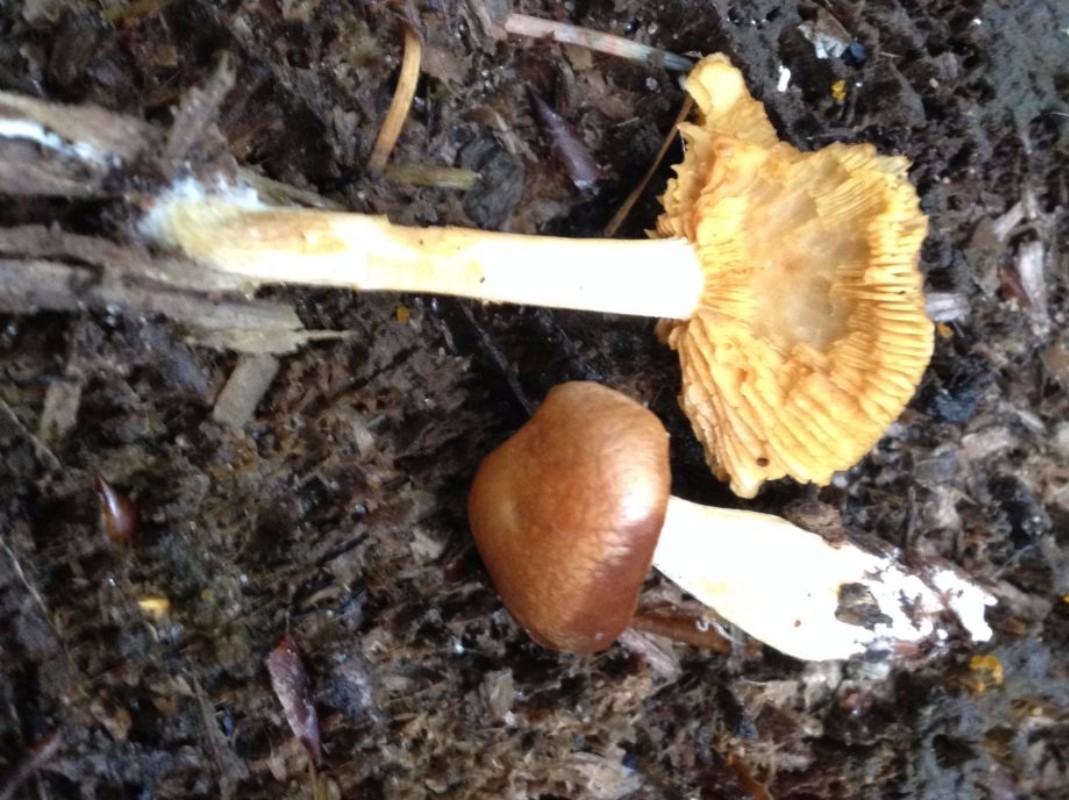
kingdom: Fungi
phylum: Basidiomycota
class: Agaricomycetes
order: Agaricales
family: Hymenogastraceae
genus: Gymnopilus
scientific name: Gymnopilus penetrans
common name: plettet flammehat
